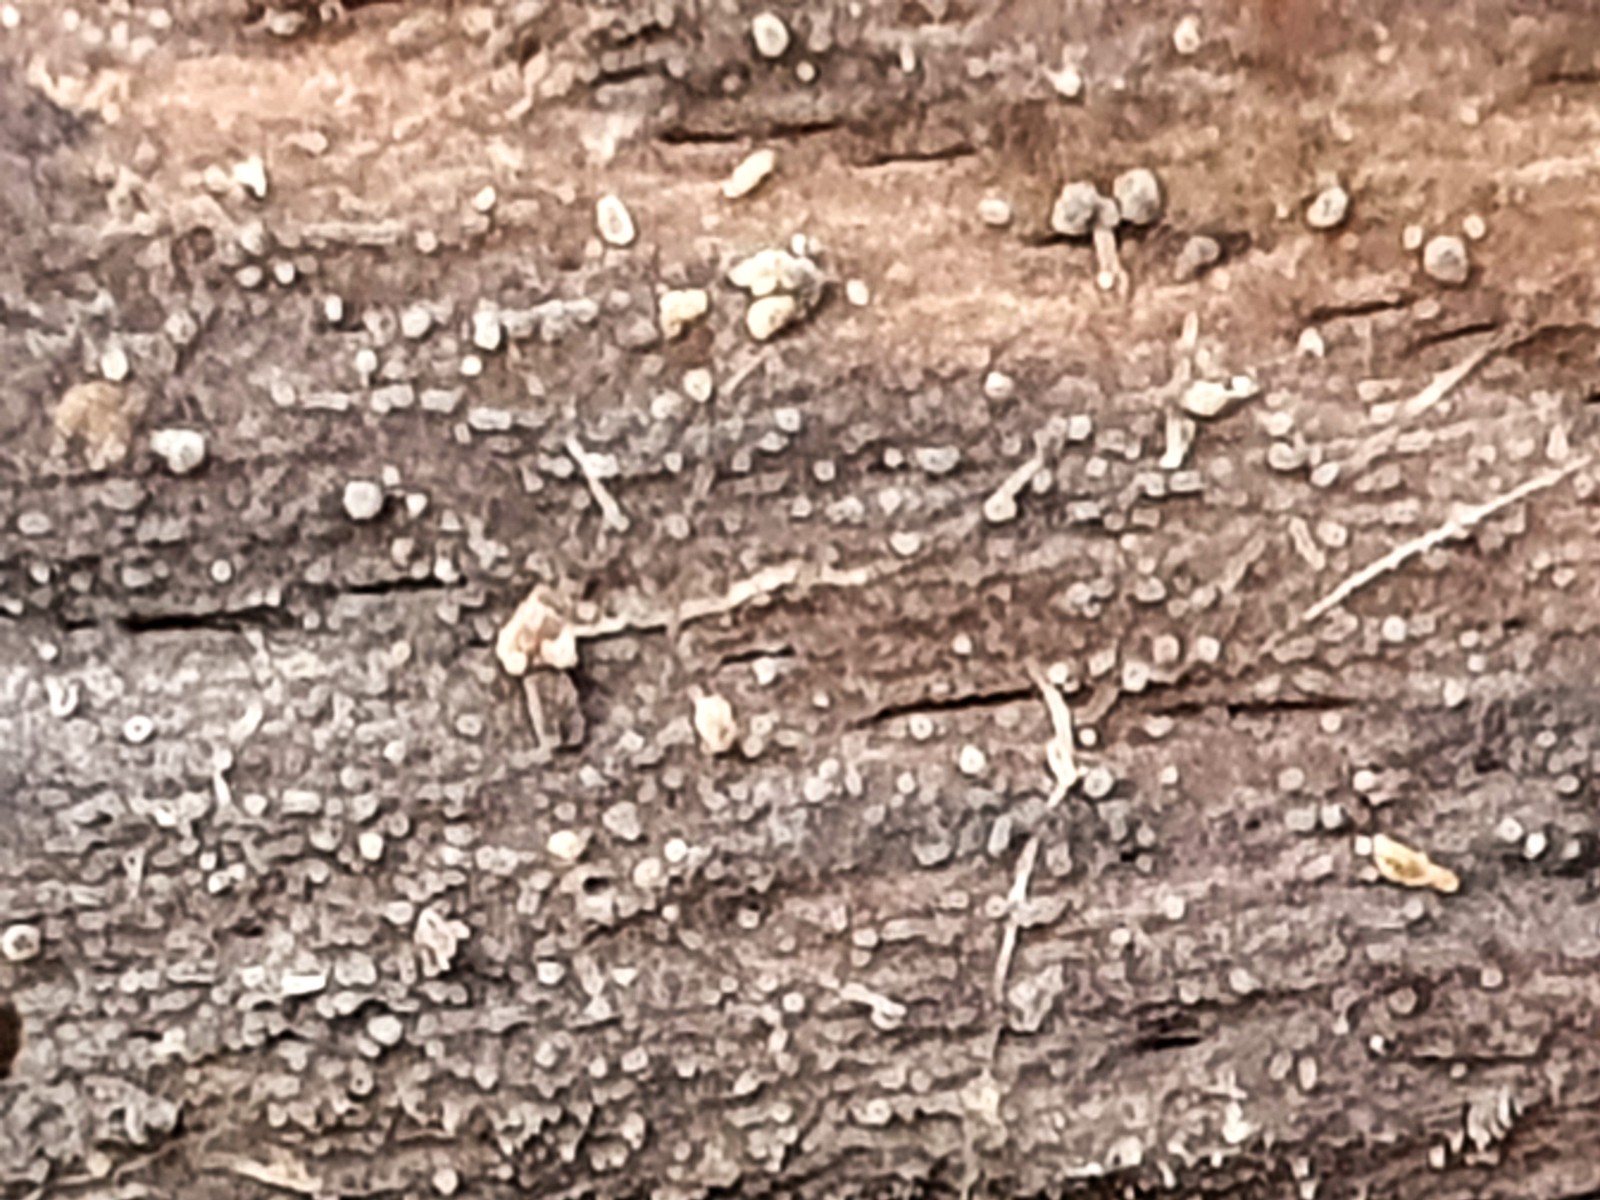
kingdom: Fungi
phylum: Basidiomycota
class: Tremellomycetes
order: Tremellales
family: Exidiaceae
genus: Exidiopsis
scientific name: Exidiopsis effusa
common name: smuk bævrehinde
